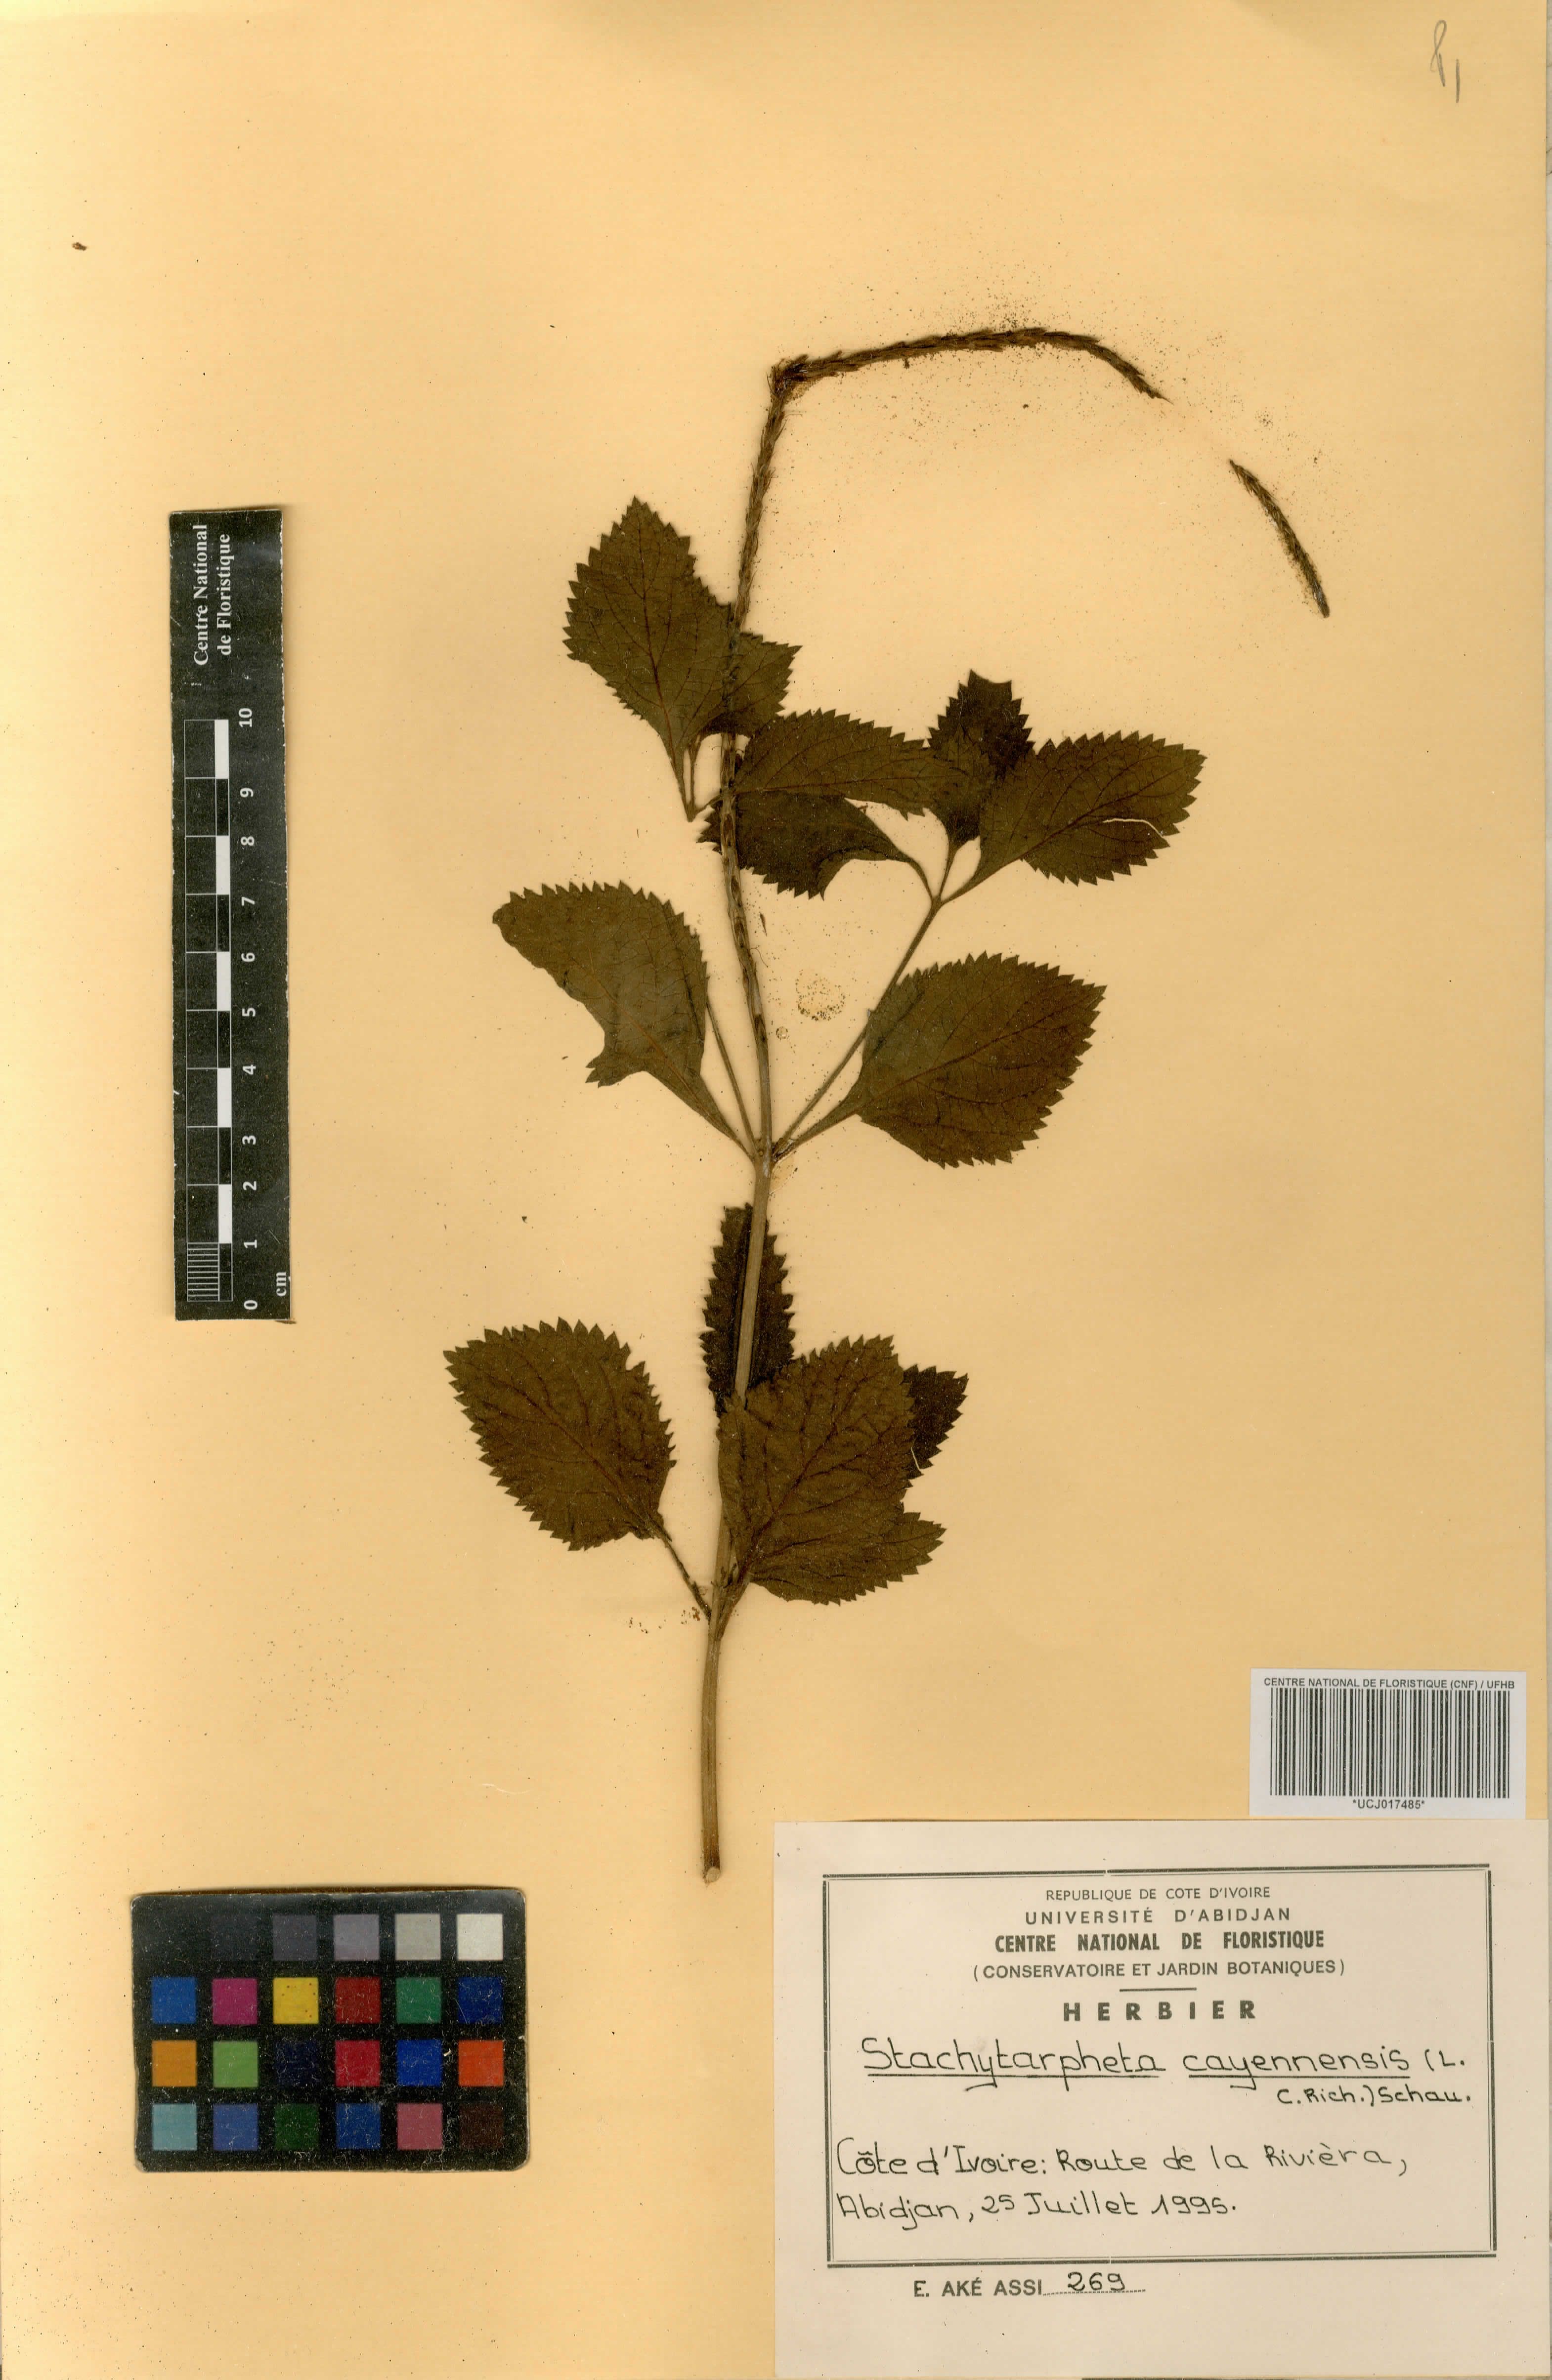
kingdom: Plantae
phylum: Tracheophyta
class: Magnoliopsida
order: Lamiales
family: Verbenaceae
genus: Stachytarpheta
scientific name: Stachytarpheta cayennensis
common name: Cayenne porterweed
